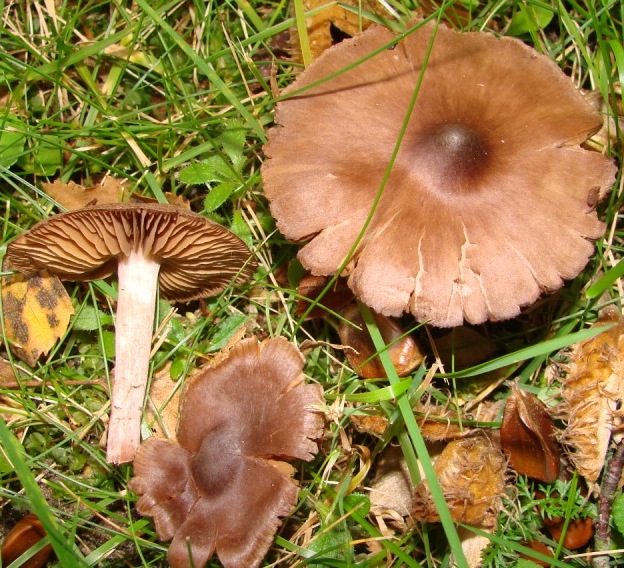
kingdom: Fungi
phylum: Basidiomycota
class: Agaricomycetes
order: Agaricales
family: Cortinariaceae
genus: Cortinarius
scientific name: Cortinarius decipiens
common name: mørkpuklet slørhat
